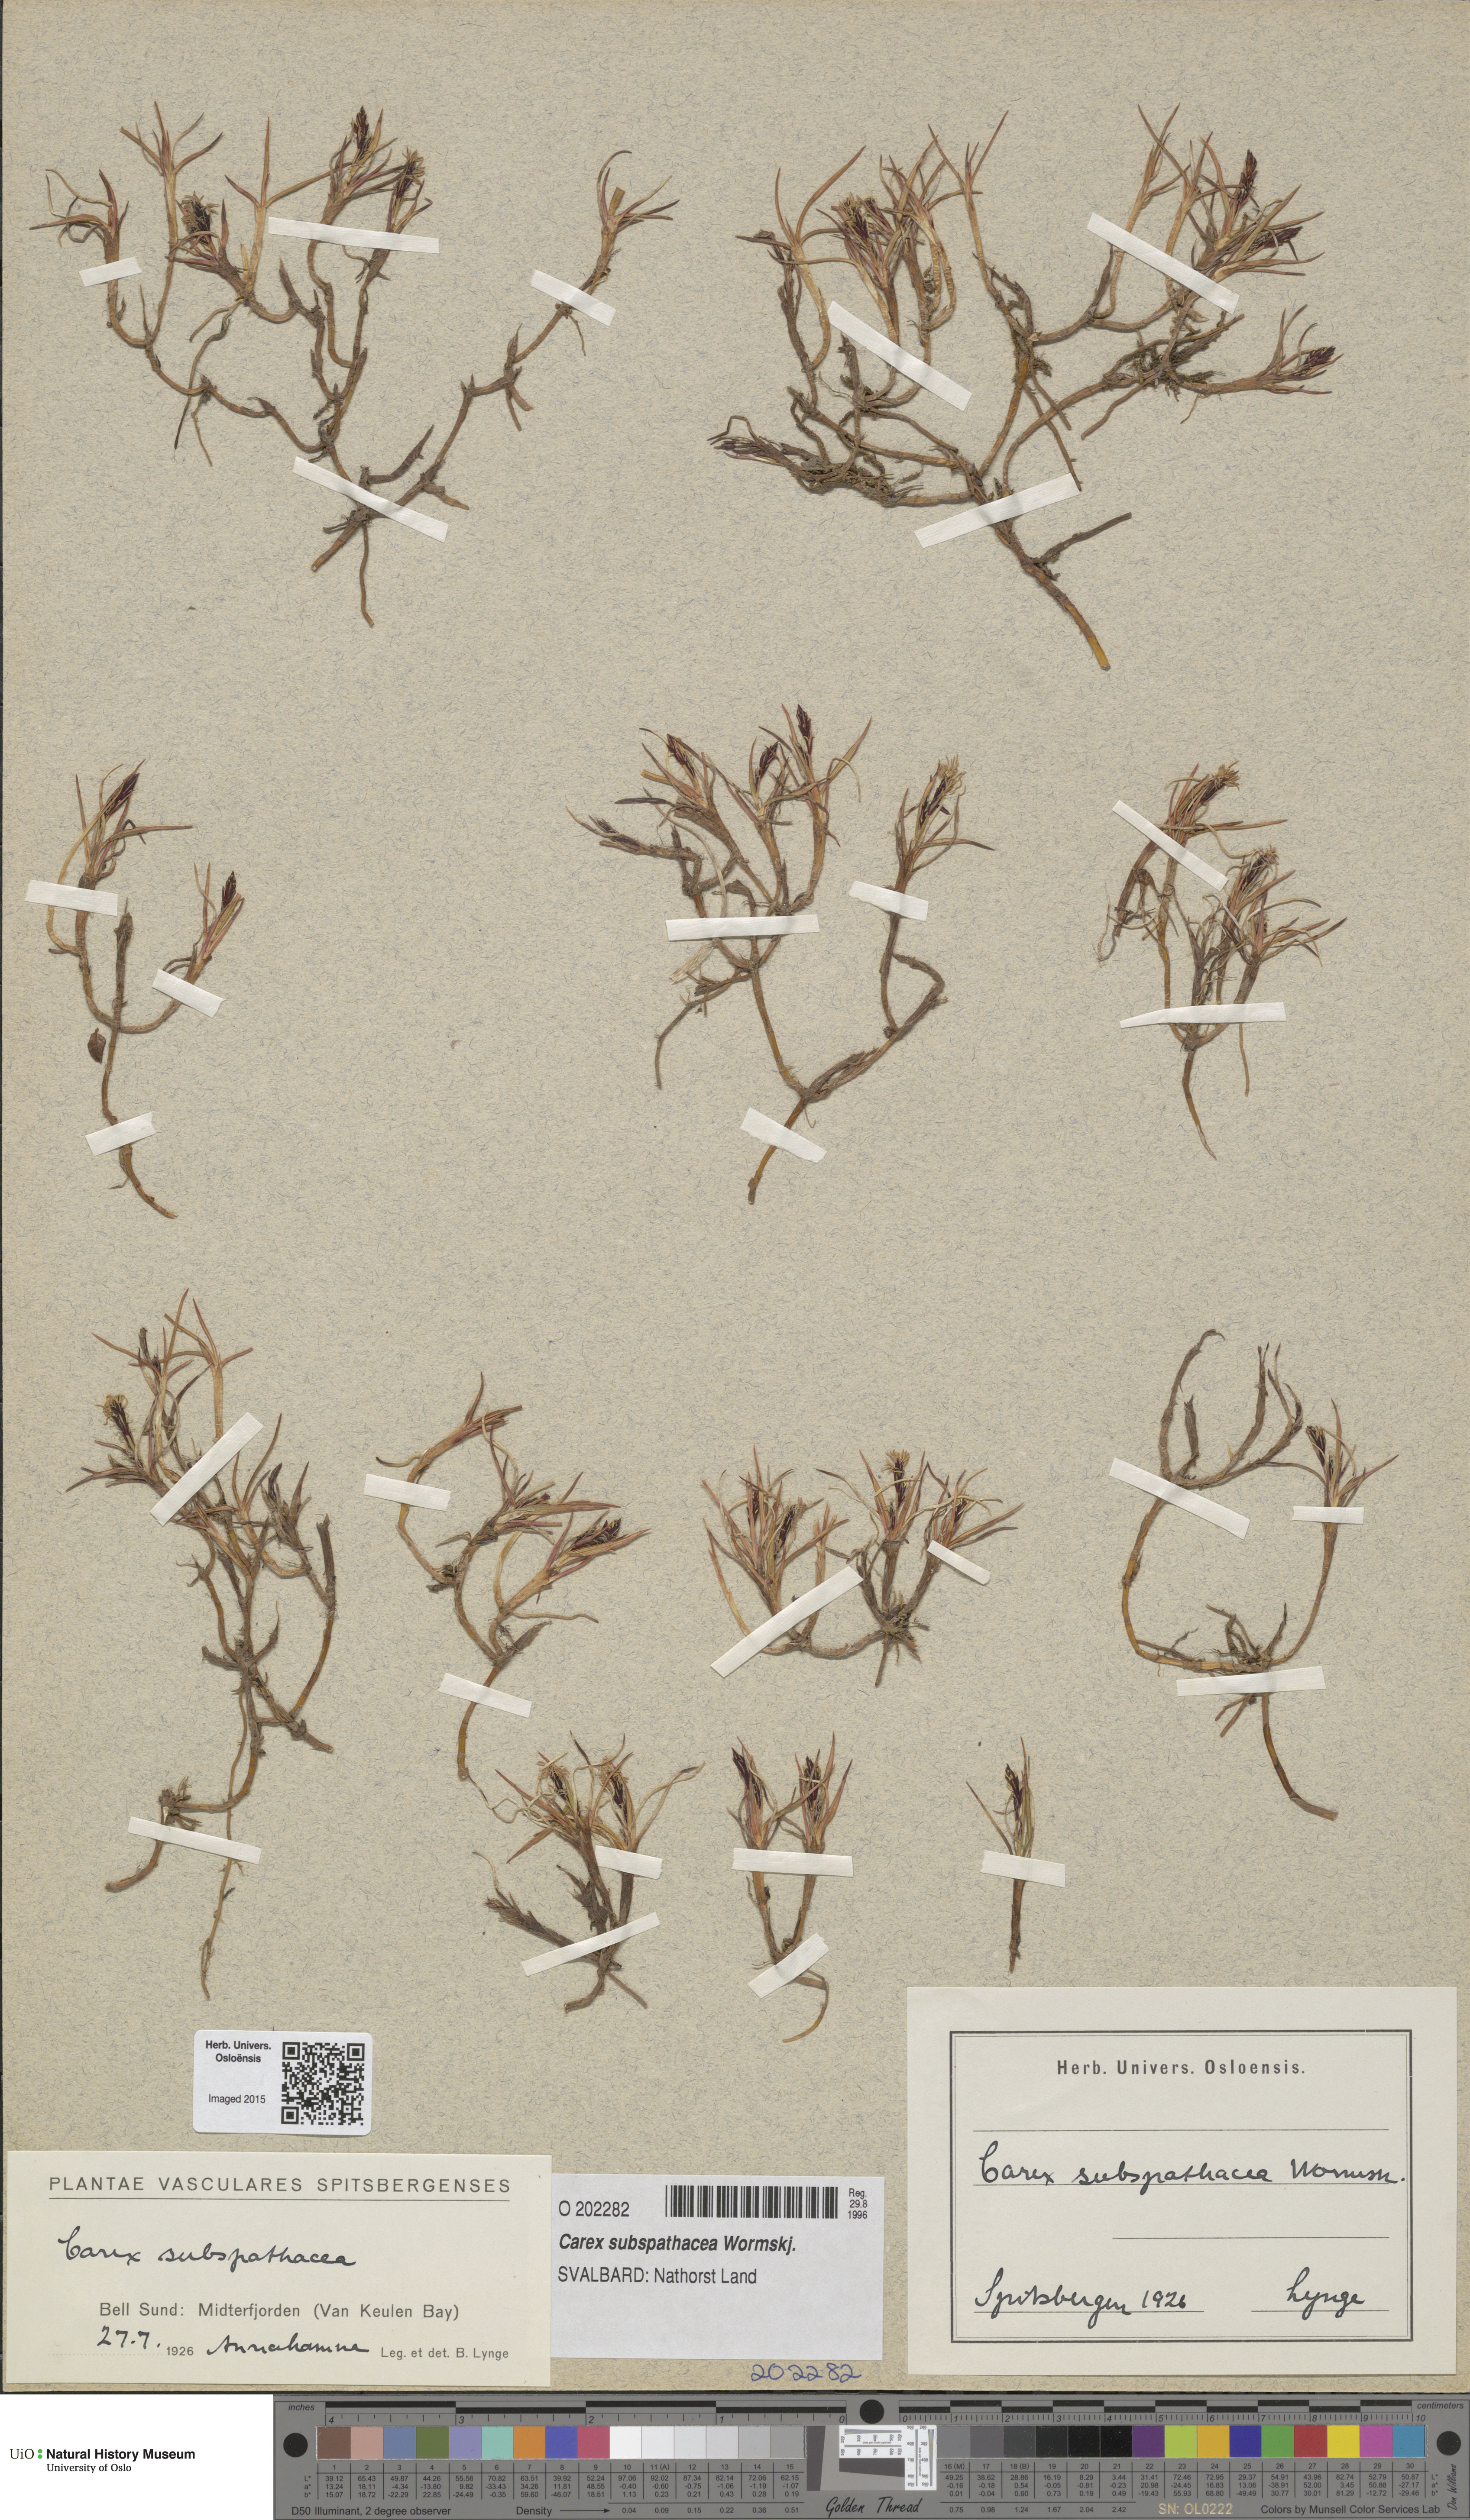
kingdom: Plantae
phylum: Tracheophyta
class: Liliopsida
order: Poales
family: Cyperaceae
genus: Carex
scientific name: Carex subspathacea
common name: Hoppner's sedge
